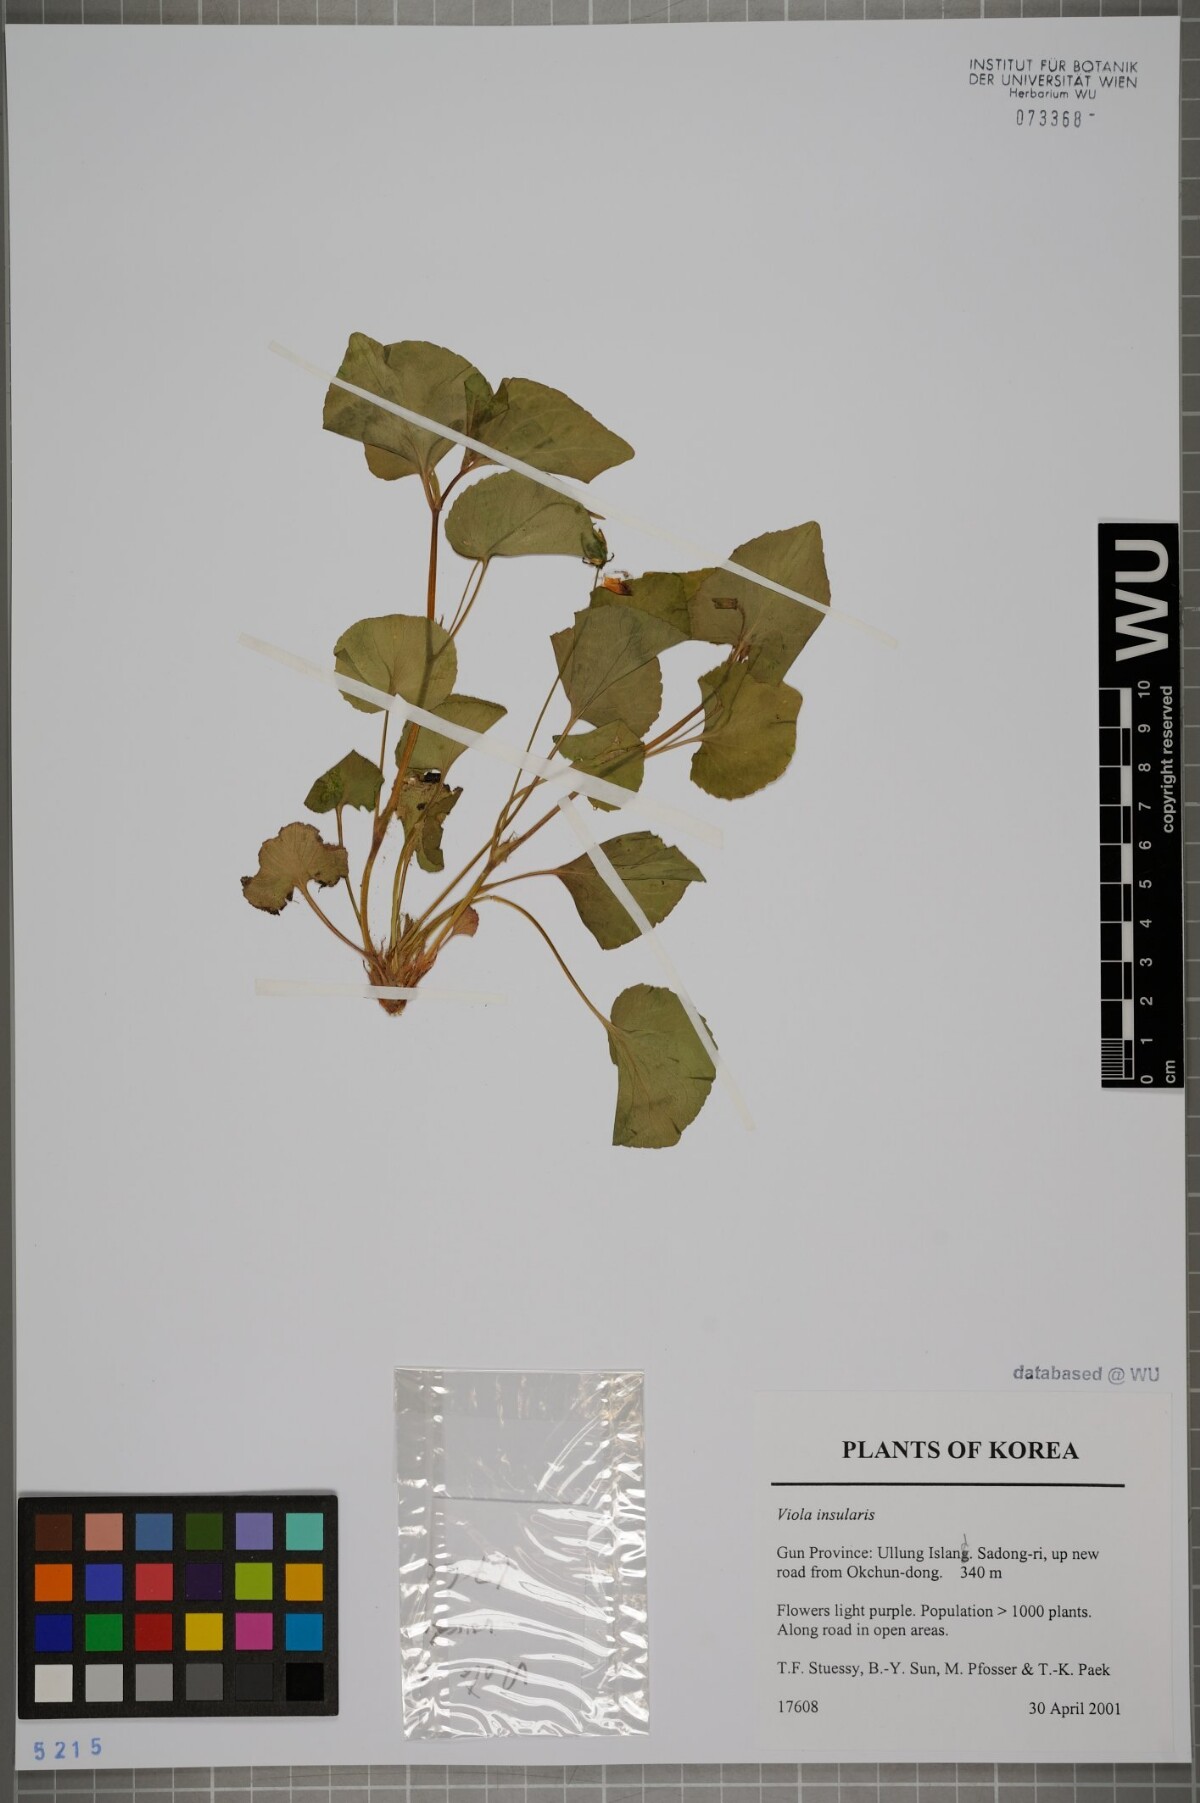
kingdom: Plantae
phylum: Tracheophyta
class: Magnoliopsida
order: Malpighiales
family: Violaceae
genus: Viola
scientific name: Viola kusanoana
